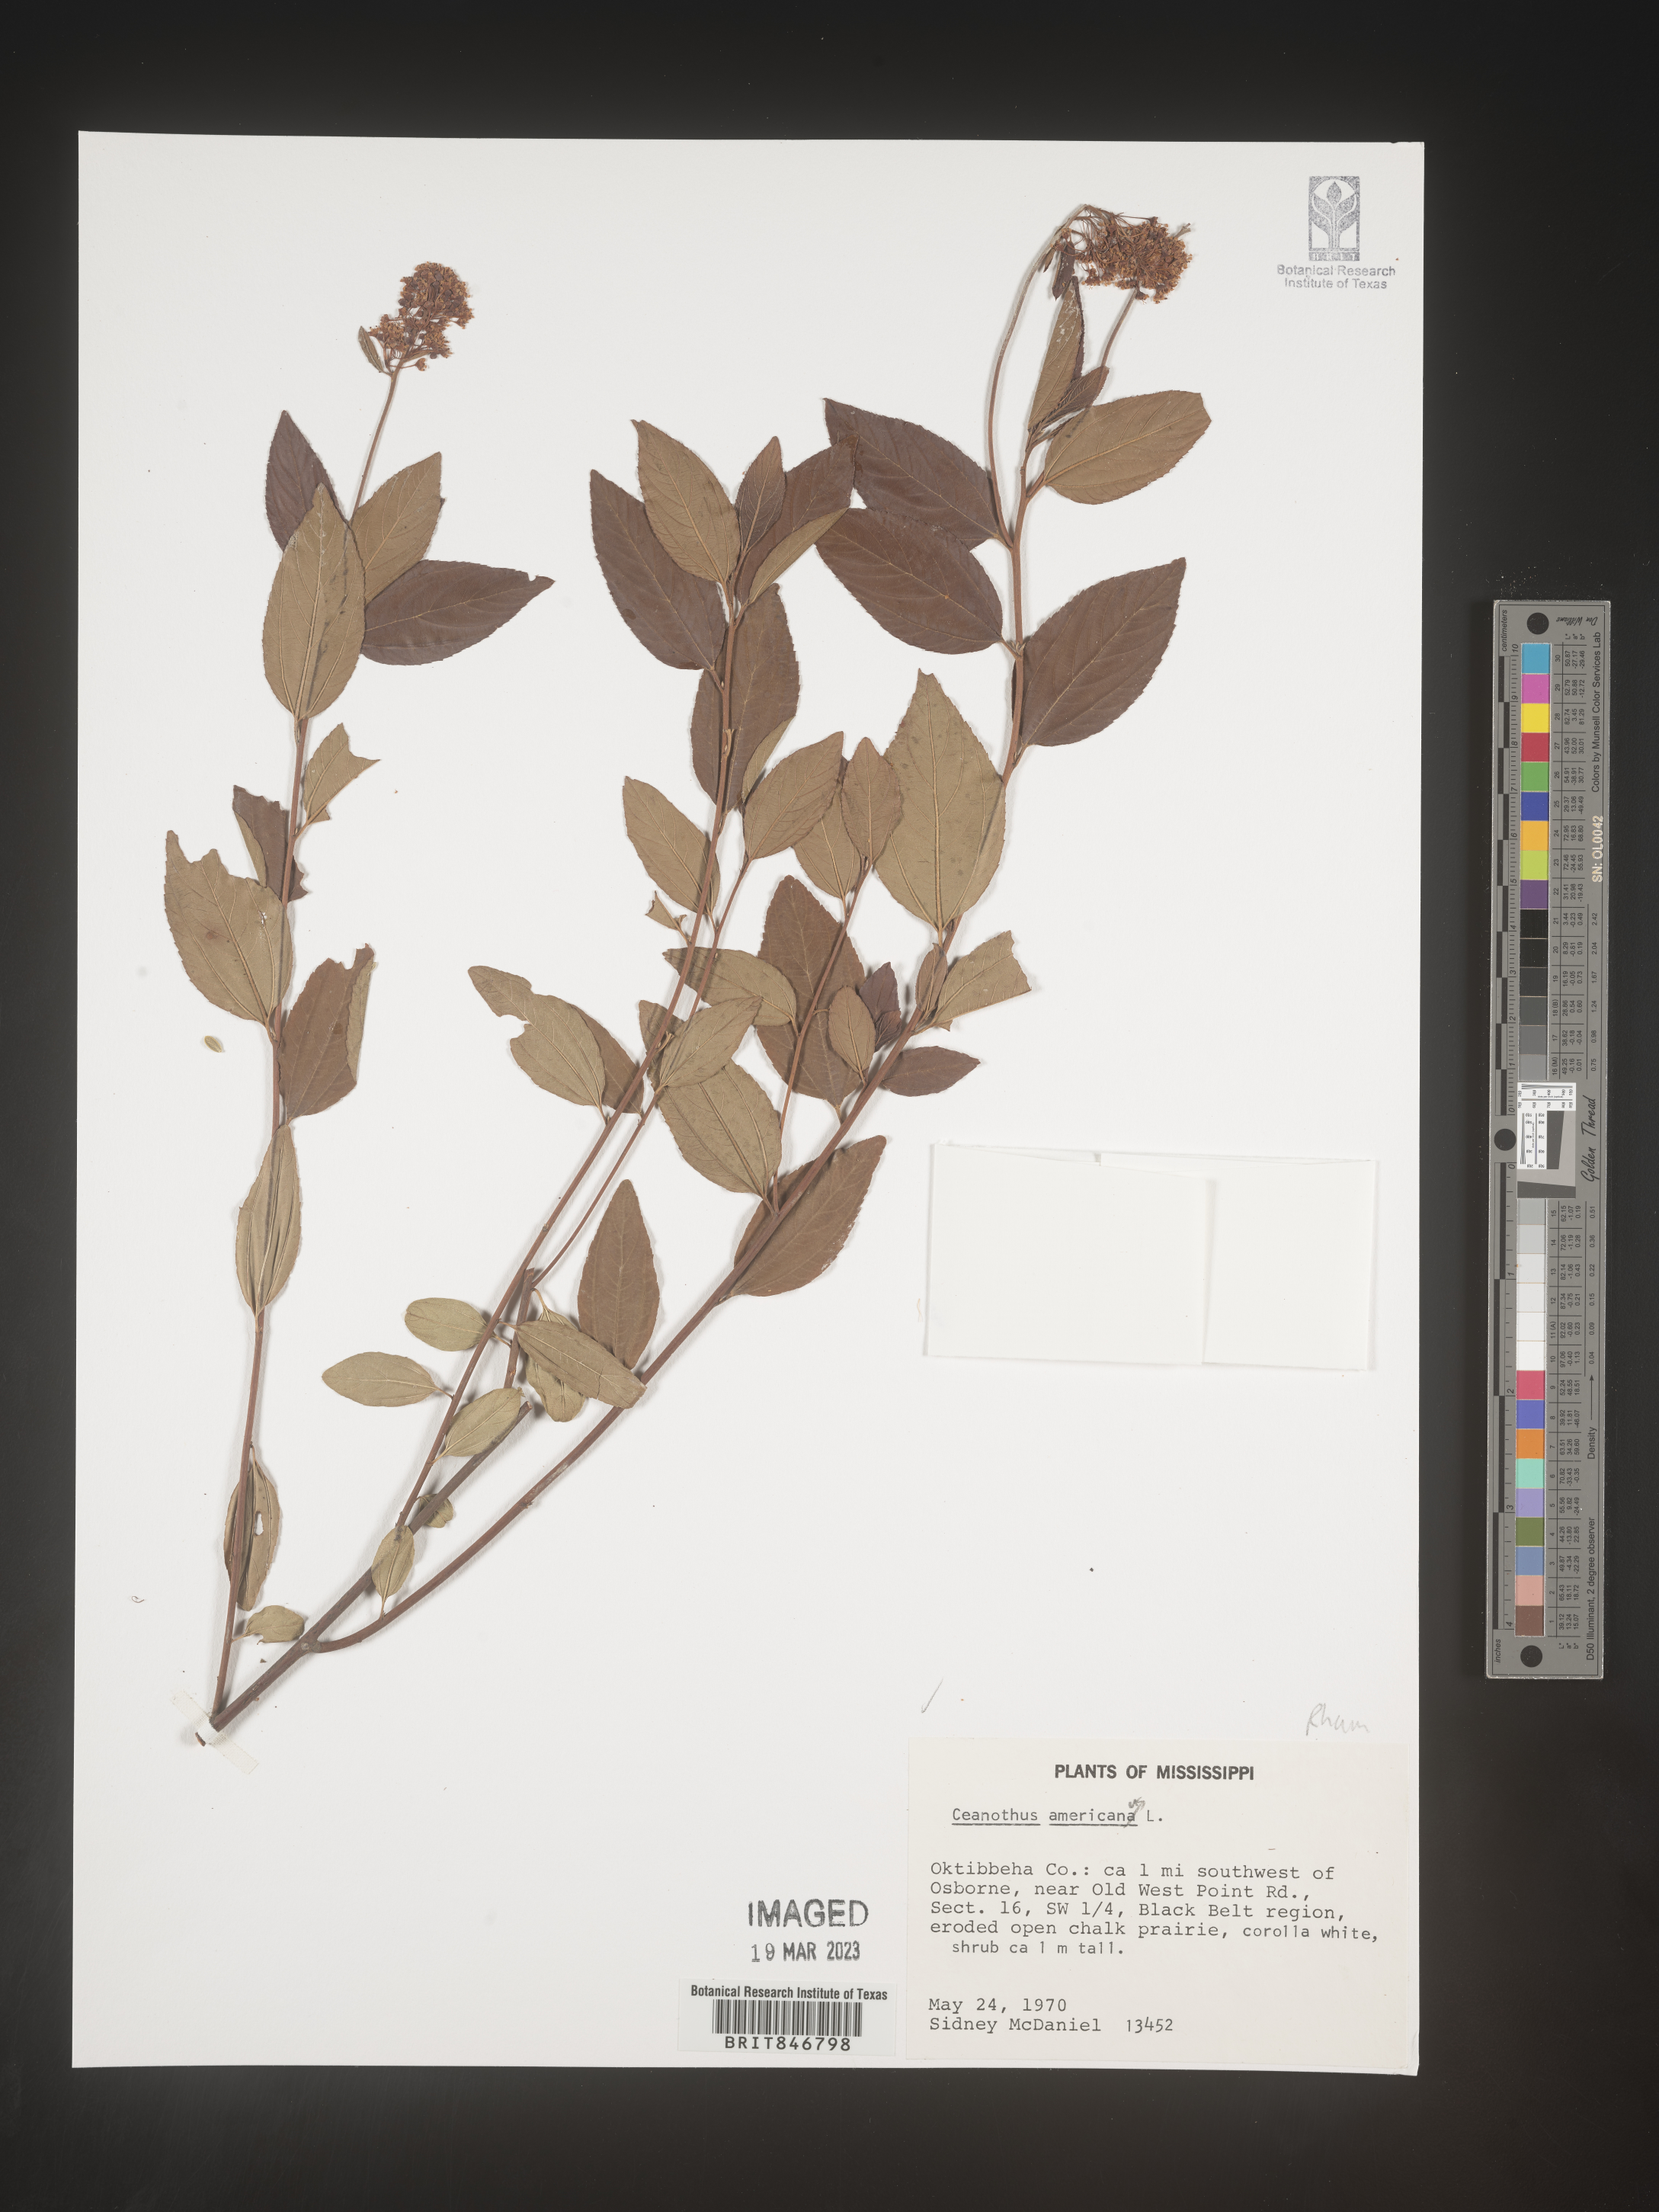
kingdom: Plantae
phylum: Tracheophyta
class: Magnoliopsida
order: Rosales
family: Rhamnaceae
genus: Ceanothus
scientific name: Ceanothus americanus
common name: Redroot
